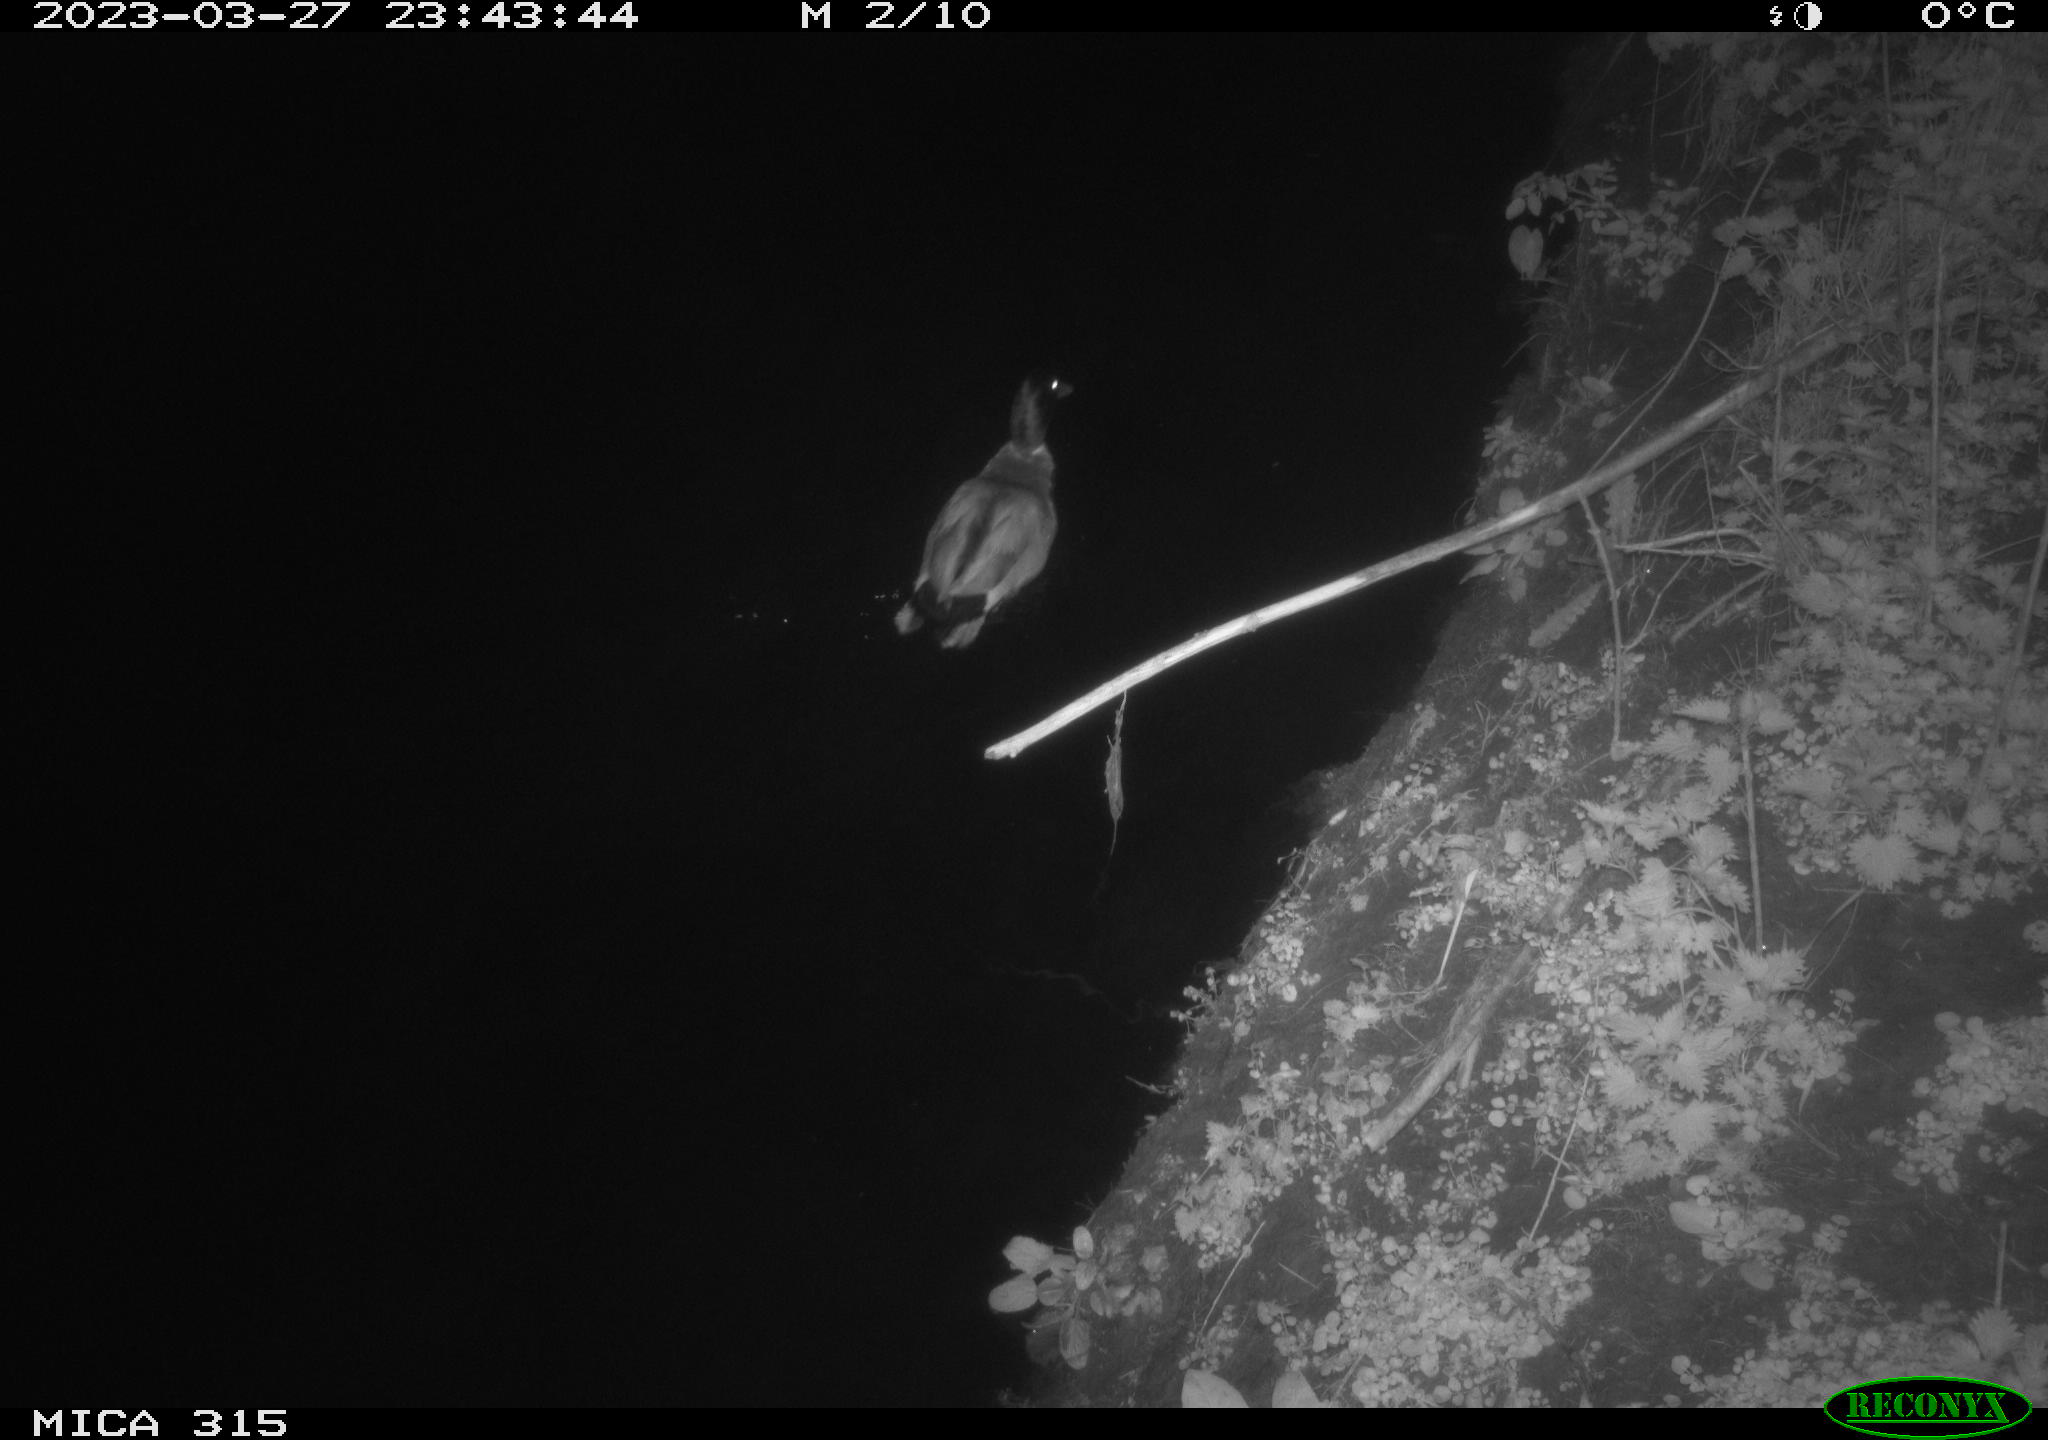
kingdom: Animalia
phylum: Chordata
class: Aves
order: Anseriformes
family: Anatidae
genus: Anas
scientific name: Anas
